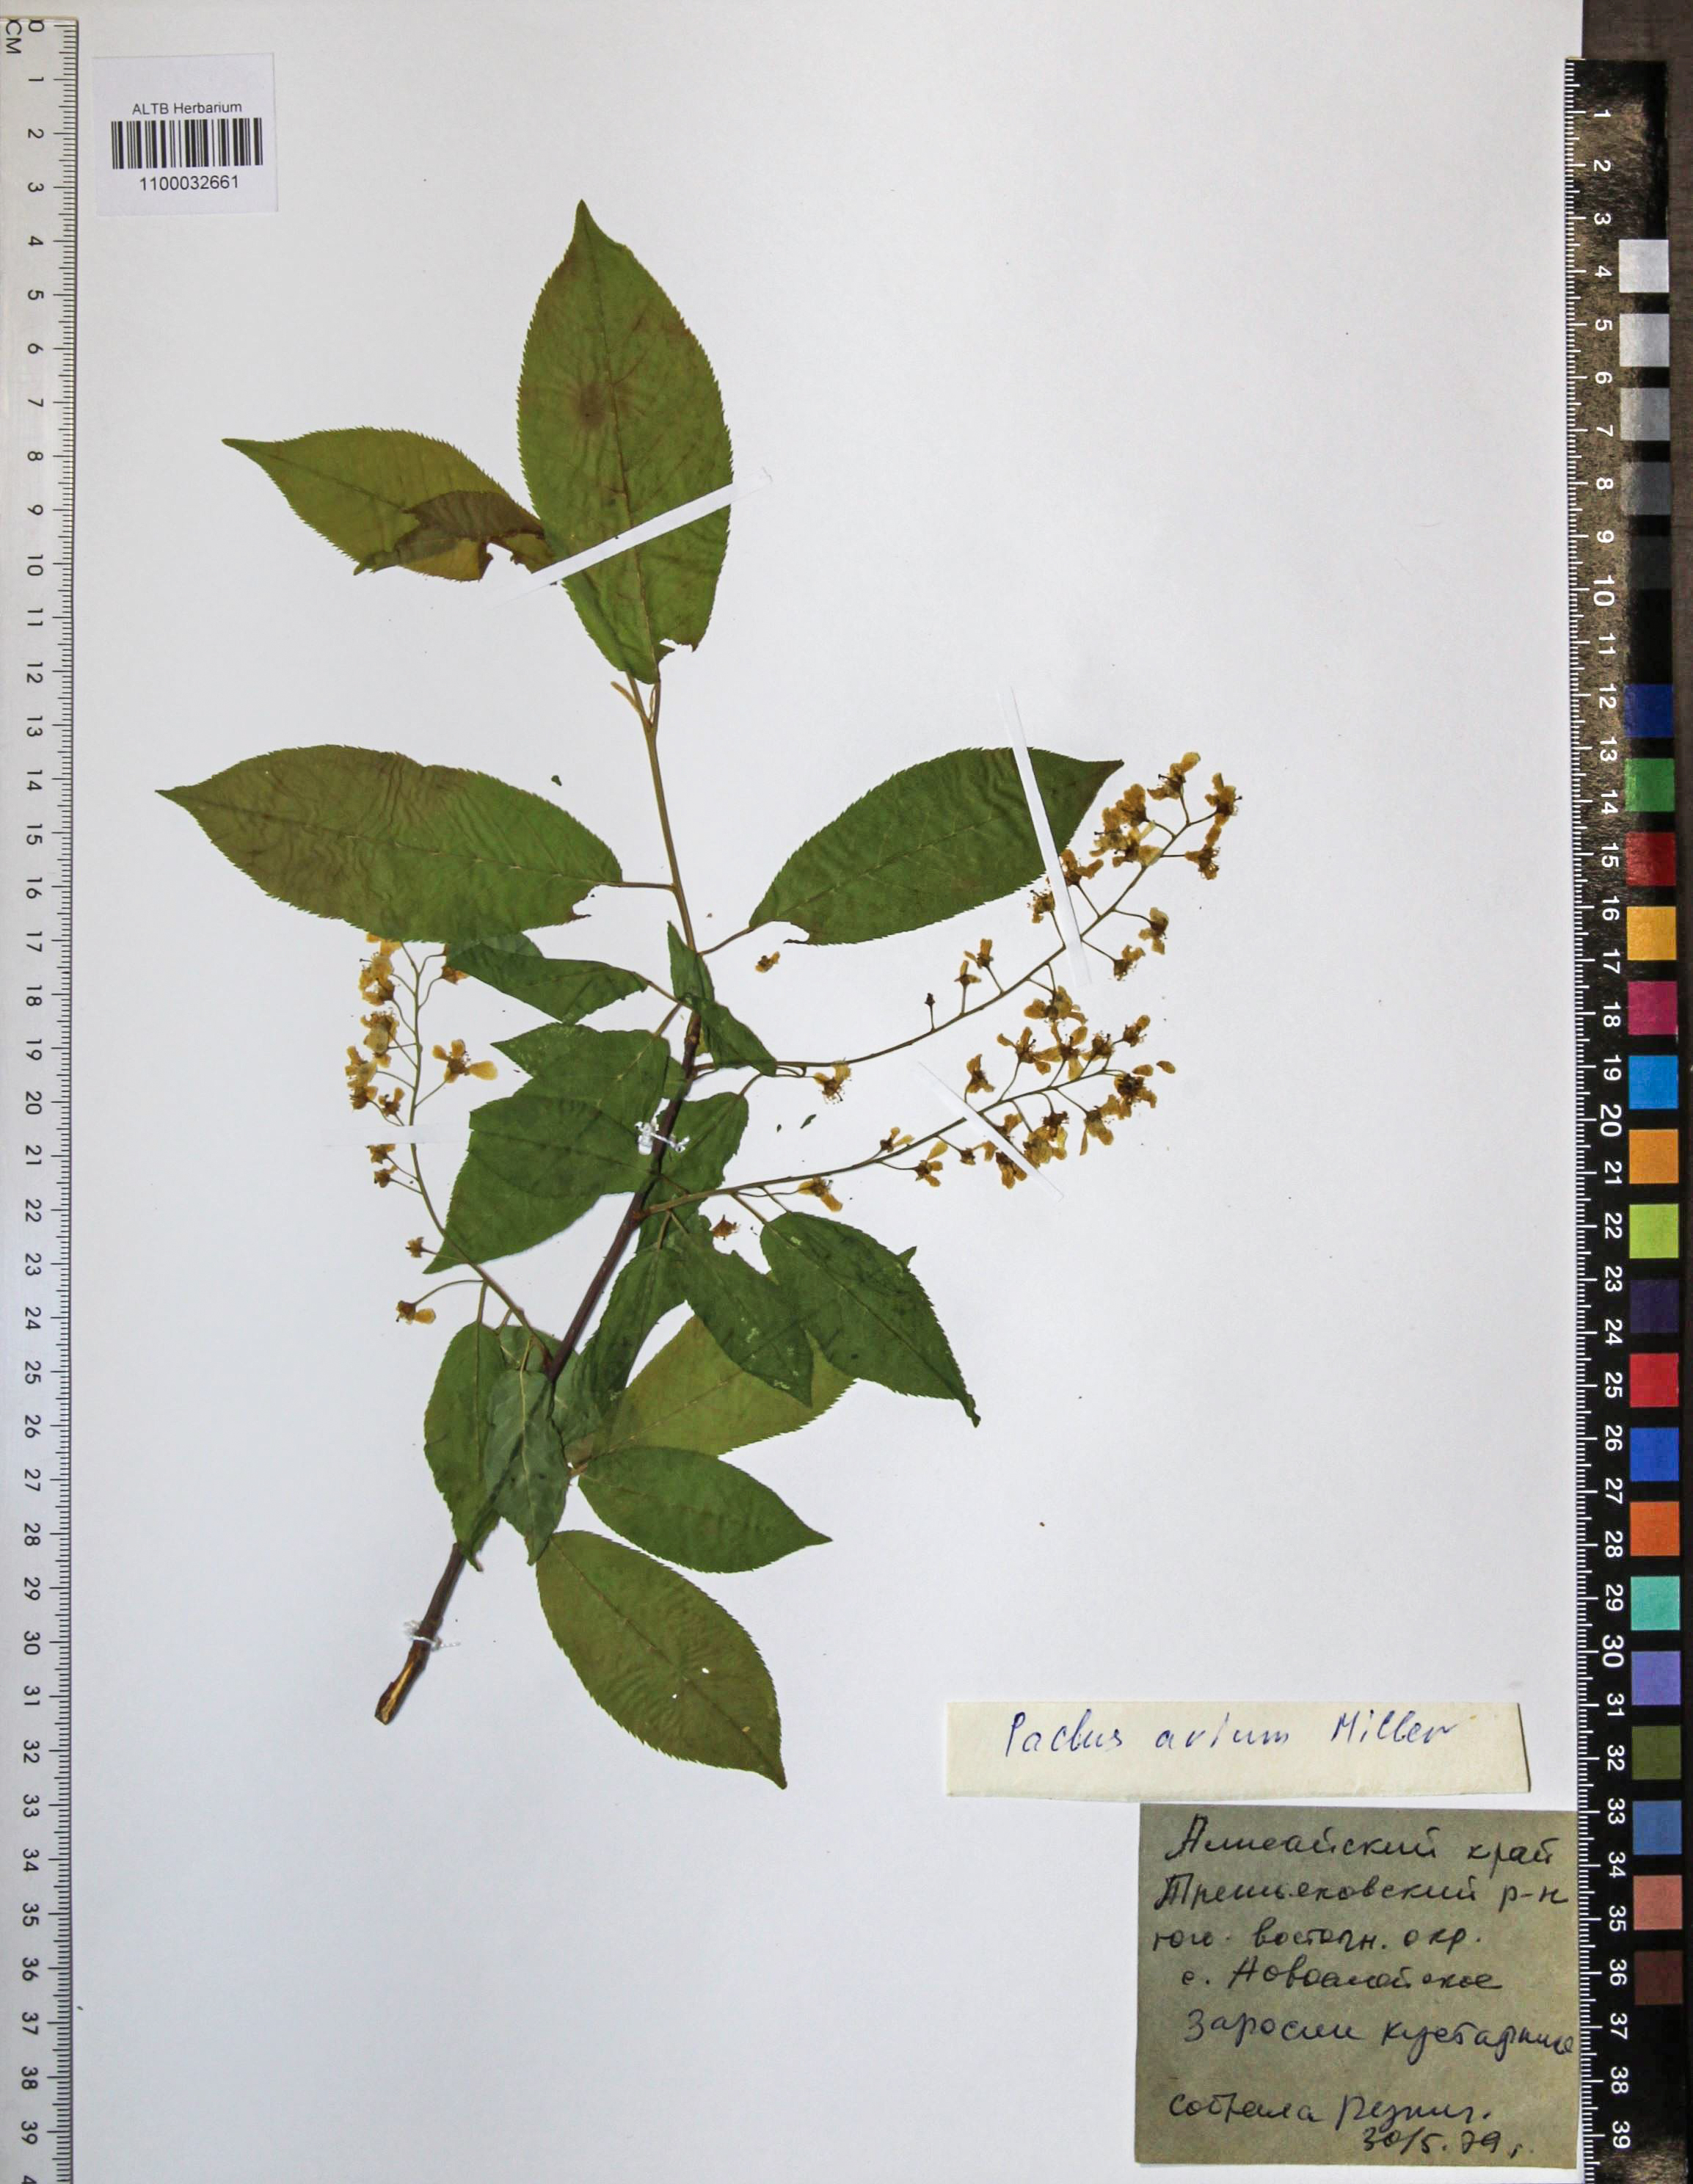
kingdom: Plantae
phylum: Tracheophyta
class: Magnoliopsida
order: Rosales
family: Rosaceae
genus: Prunus
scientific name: Prunus padus
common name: Bird cherry
